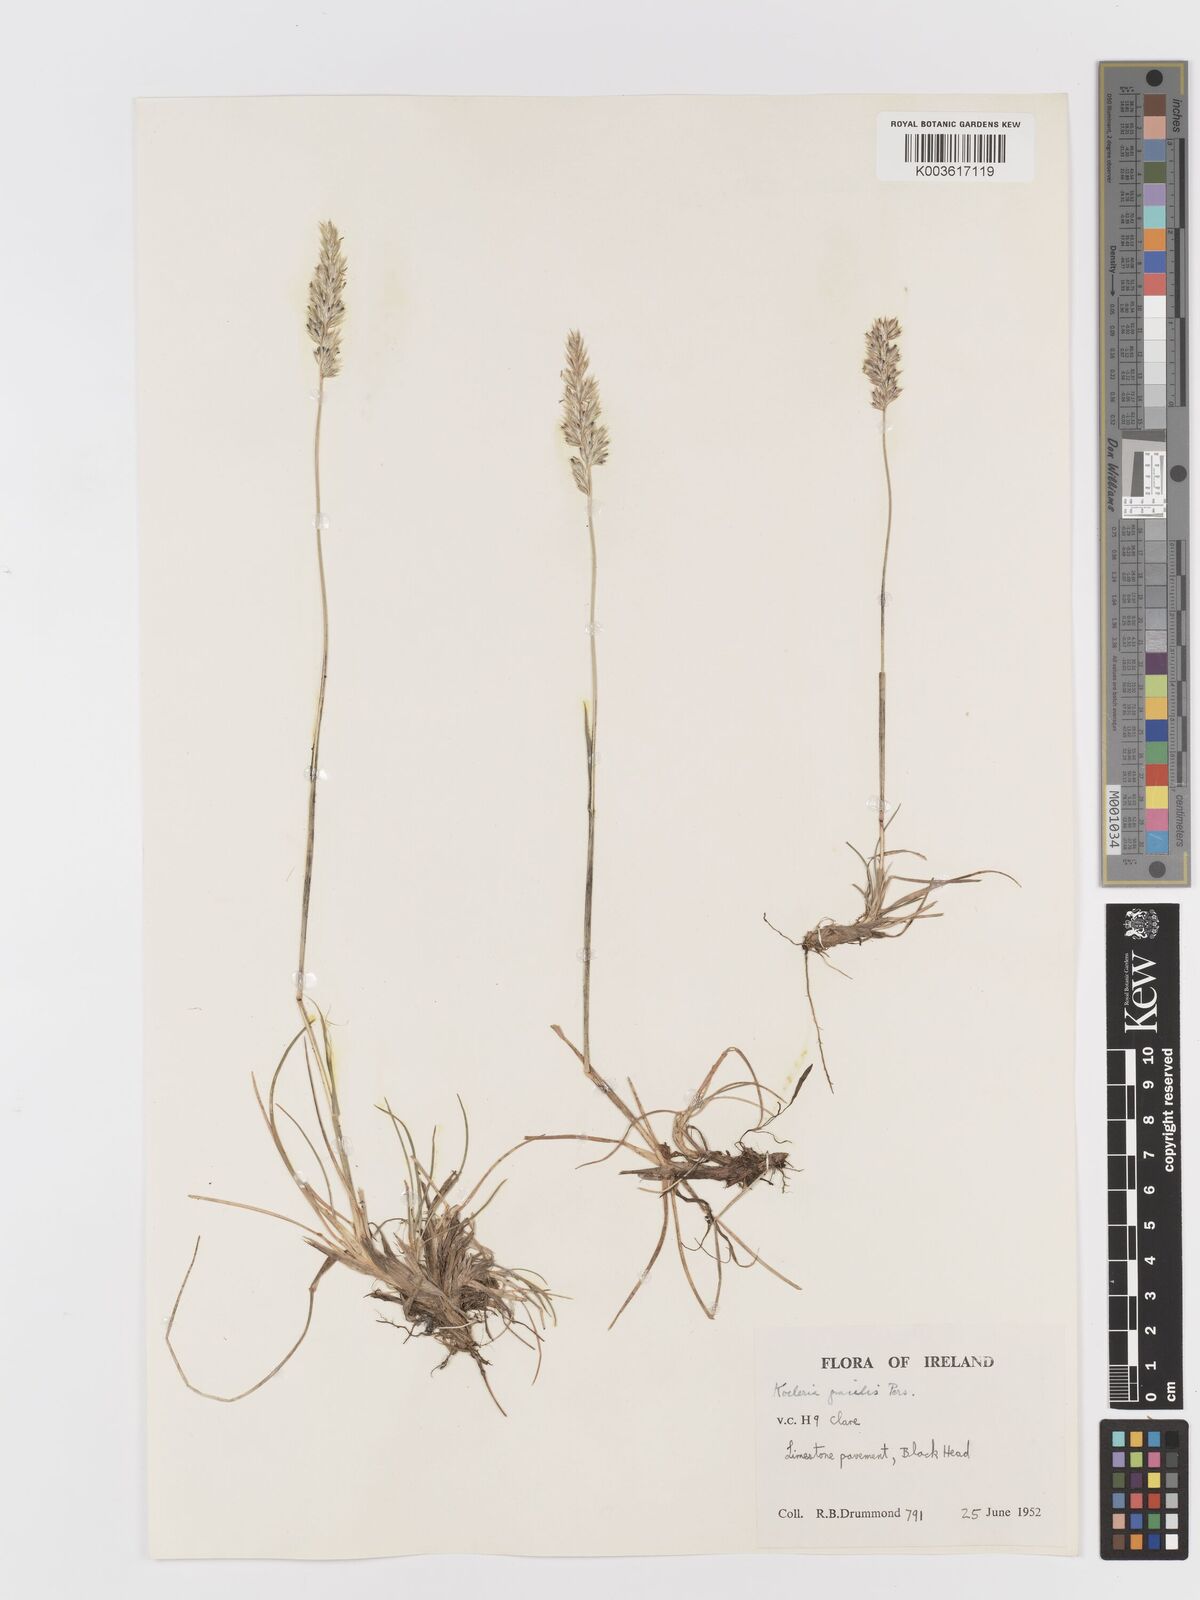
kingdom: Plantae
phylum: Tracheophyta
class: Liliopsida
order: Poales
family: Poaceae
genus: Koeleria
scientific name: Koeleria macrantha
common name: Crested hair-grass
